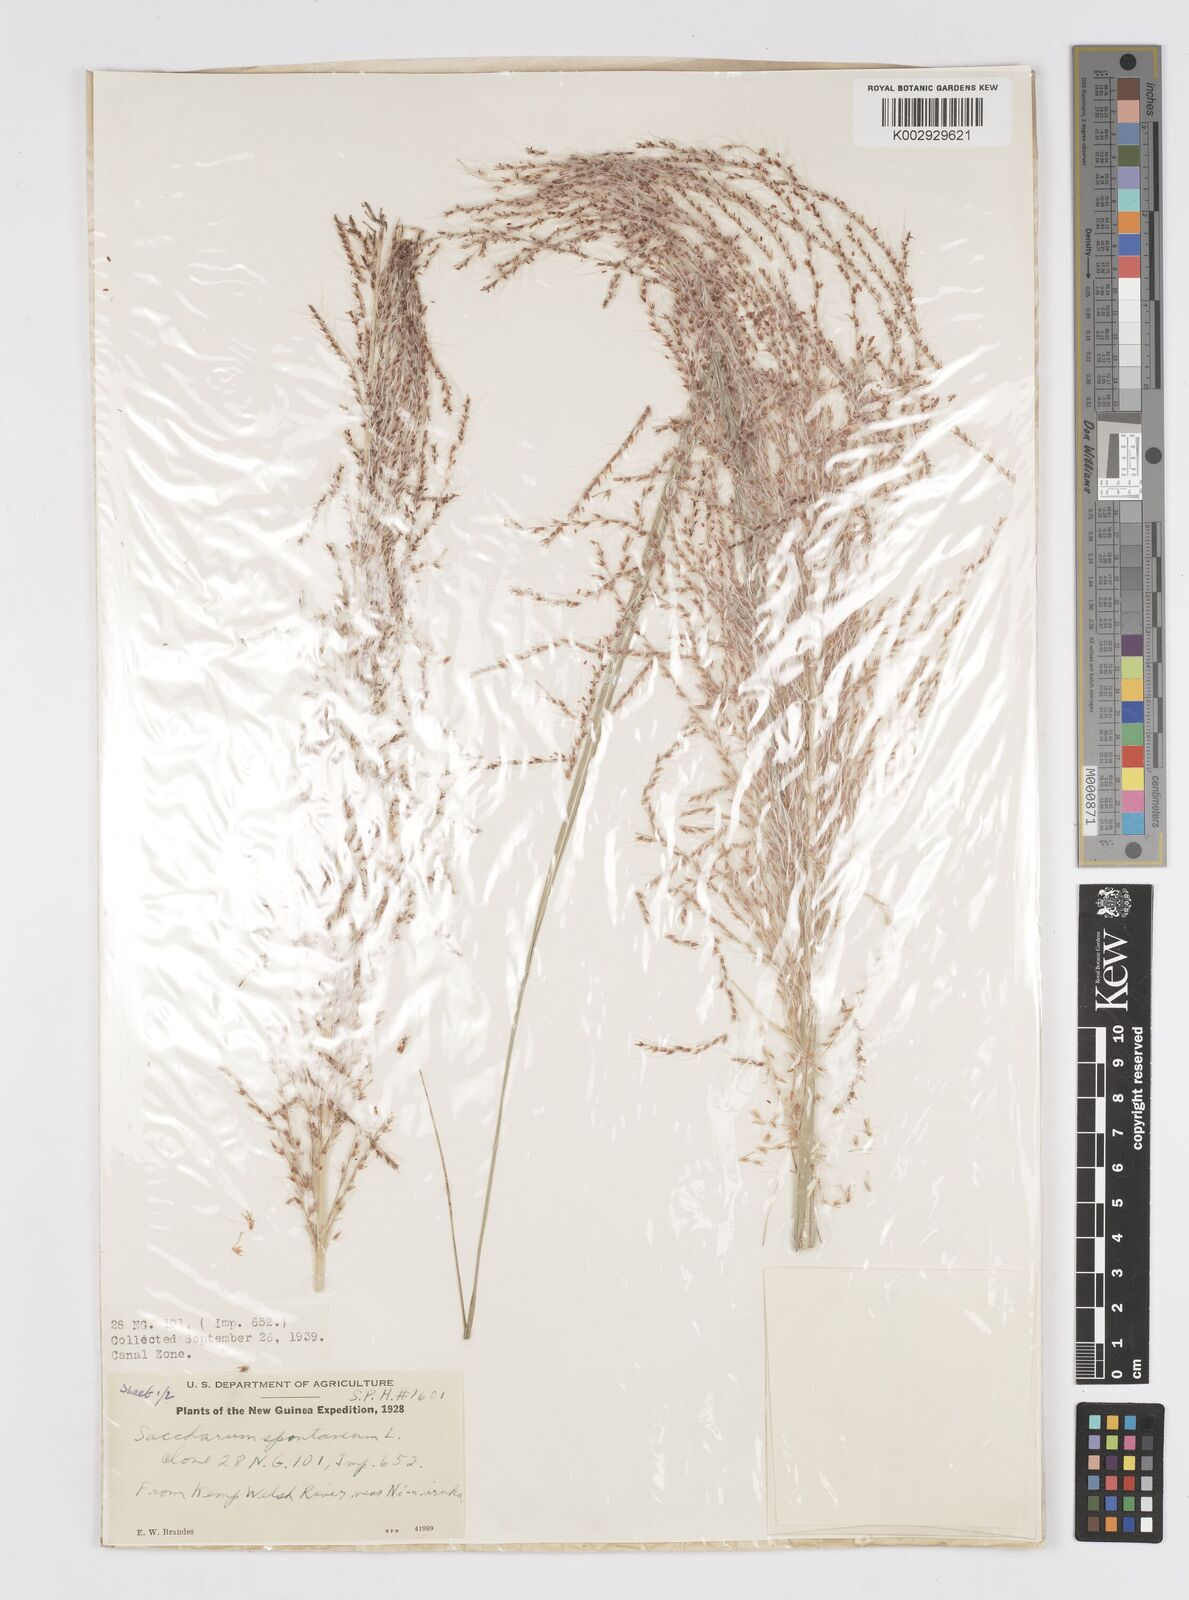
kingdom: Plantae
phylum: Tracheophyta
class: Liliopsida
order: Poales
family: Poaceae
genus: Saccharum
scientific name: Saccharum spontaneum
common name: Wild sugarcane
